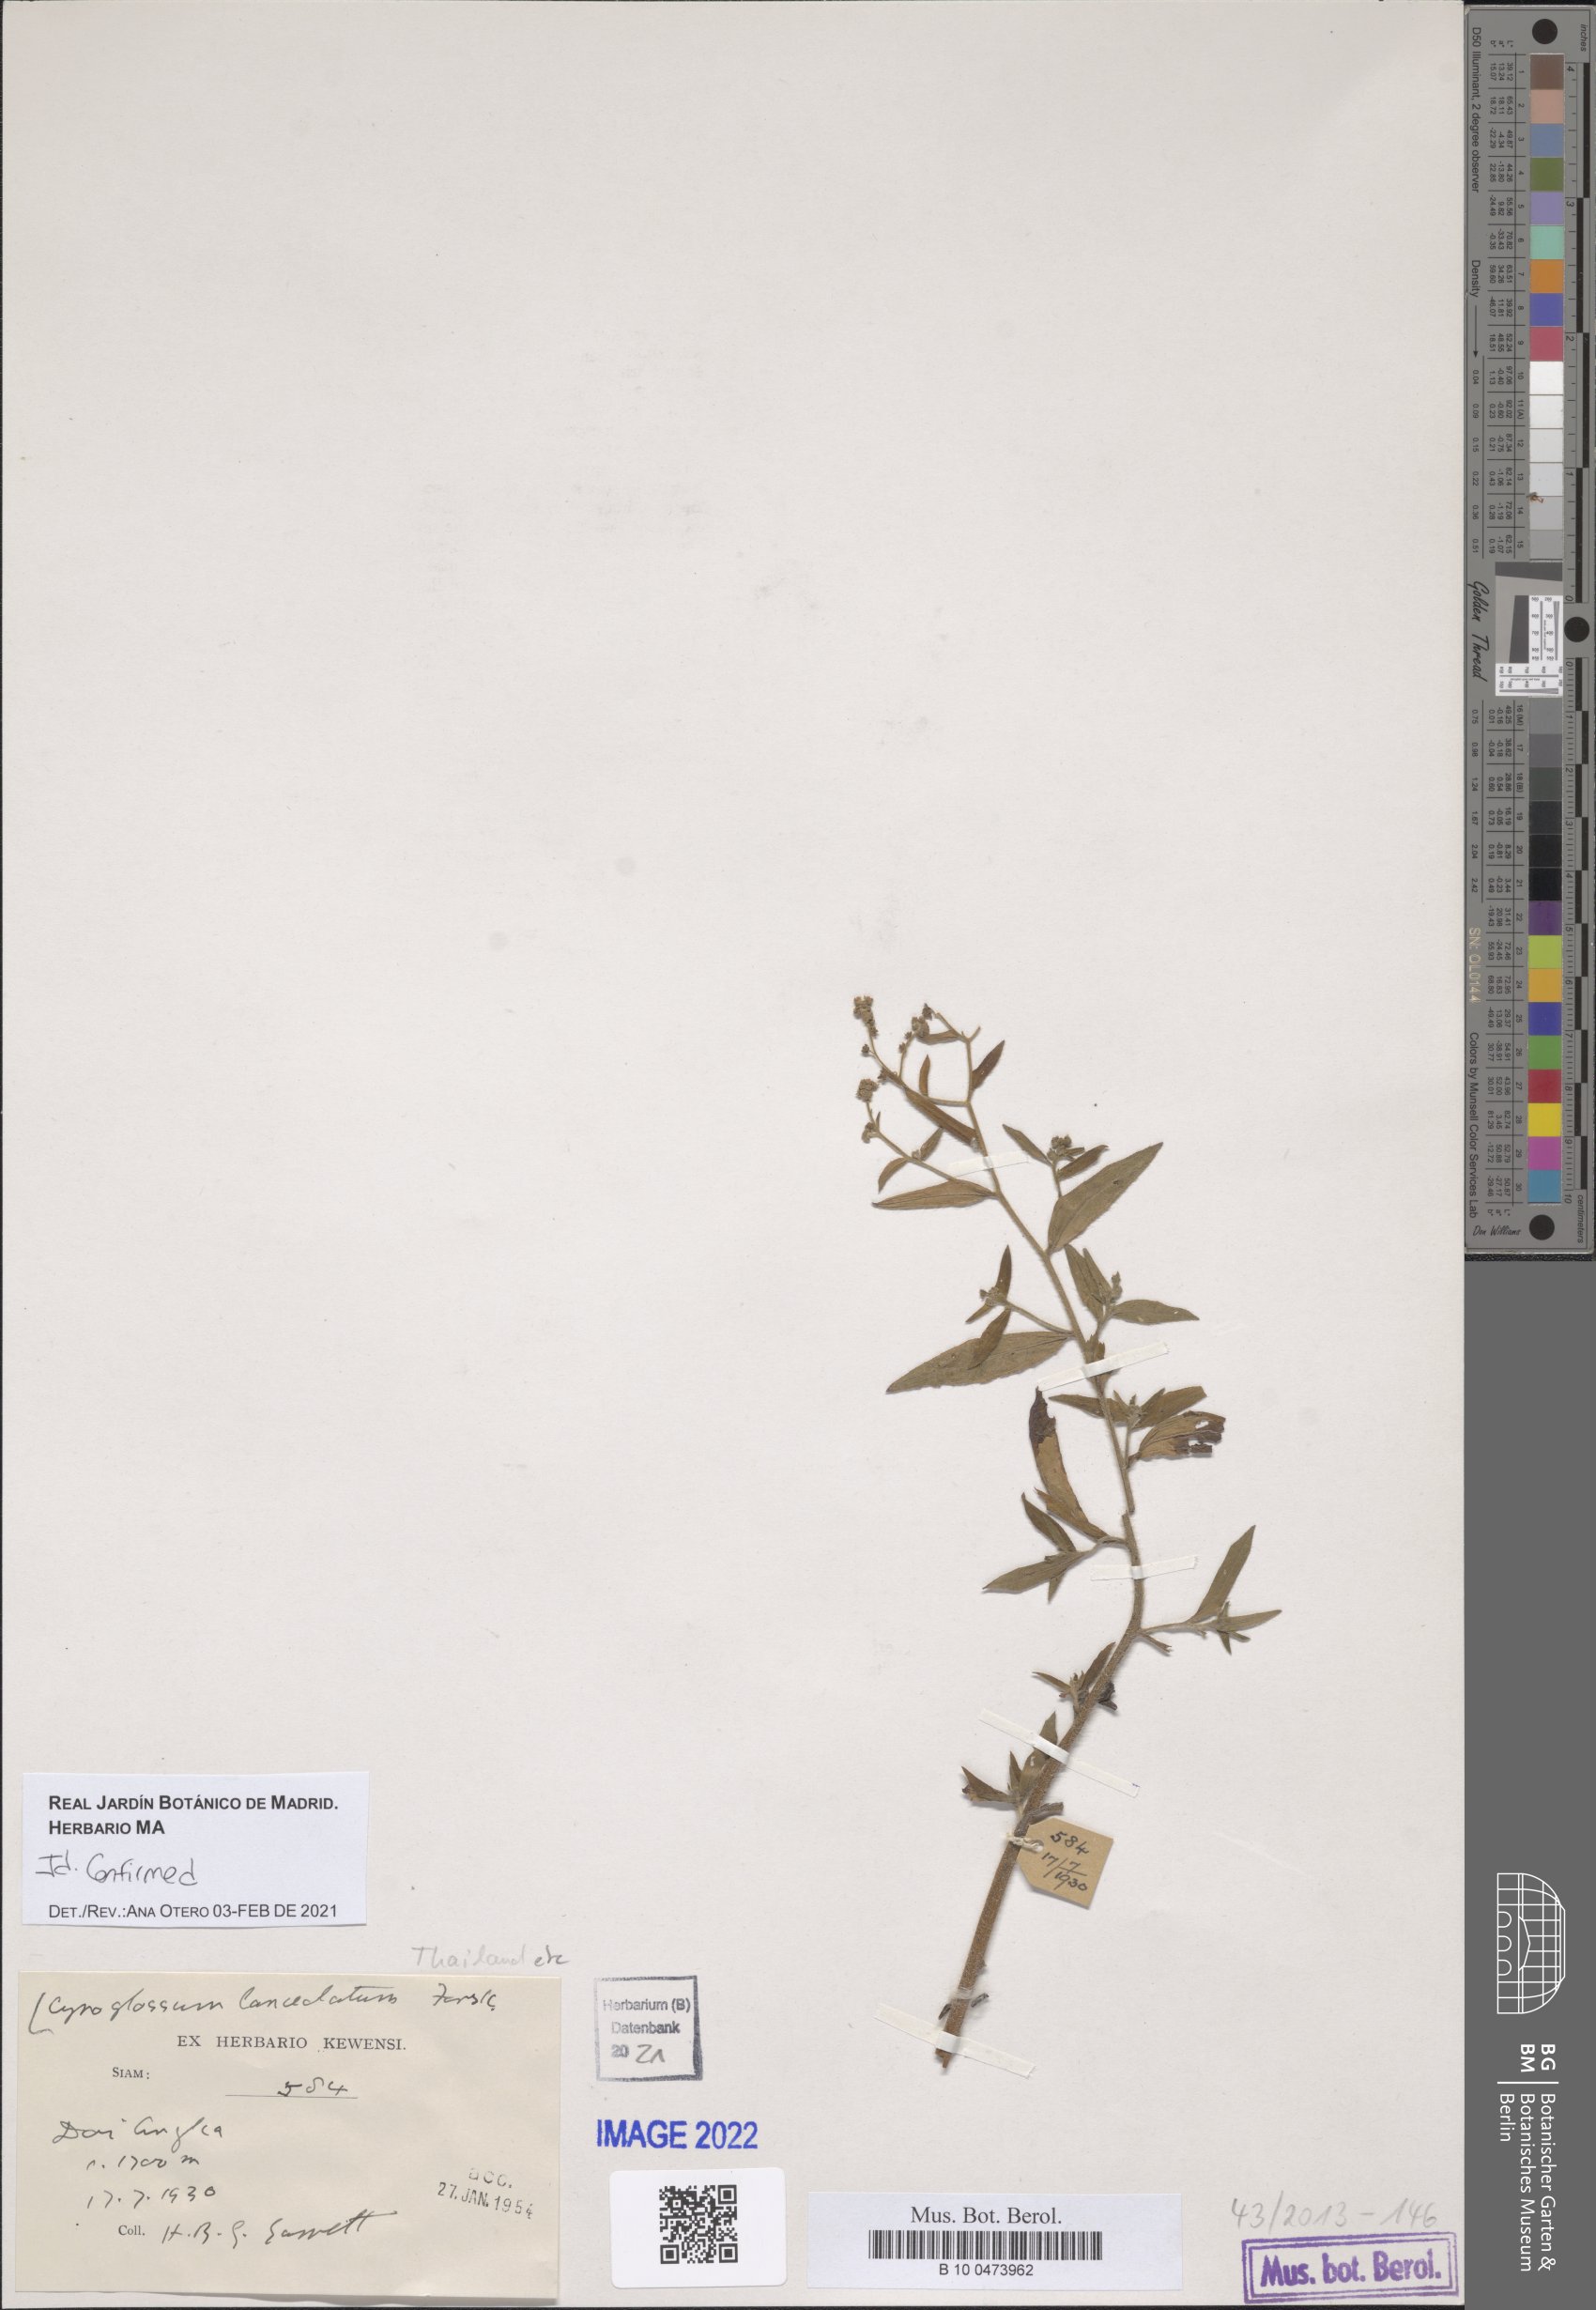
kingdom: Plantae
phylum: Tracheophyta
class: Magnoliopsida
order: Boraginales
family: Boraginaceae
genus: Paracynoglossum
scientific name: Paracynoglossum lanceolatum
